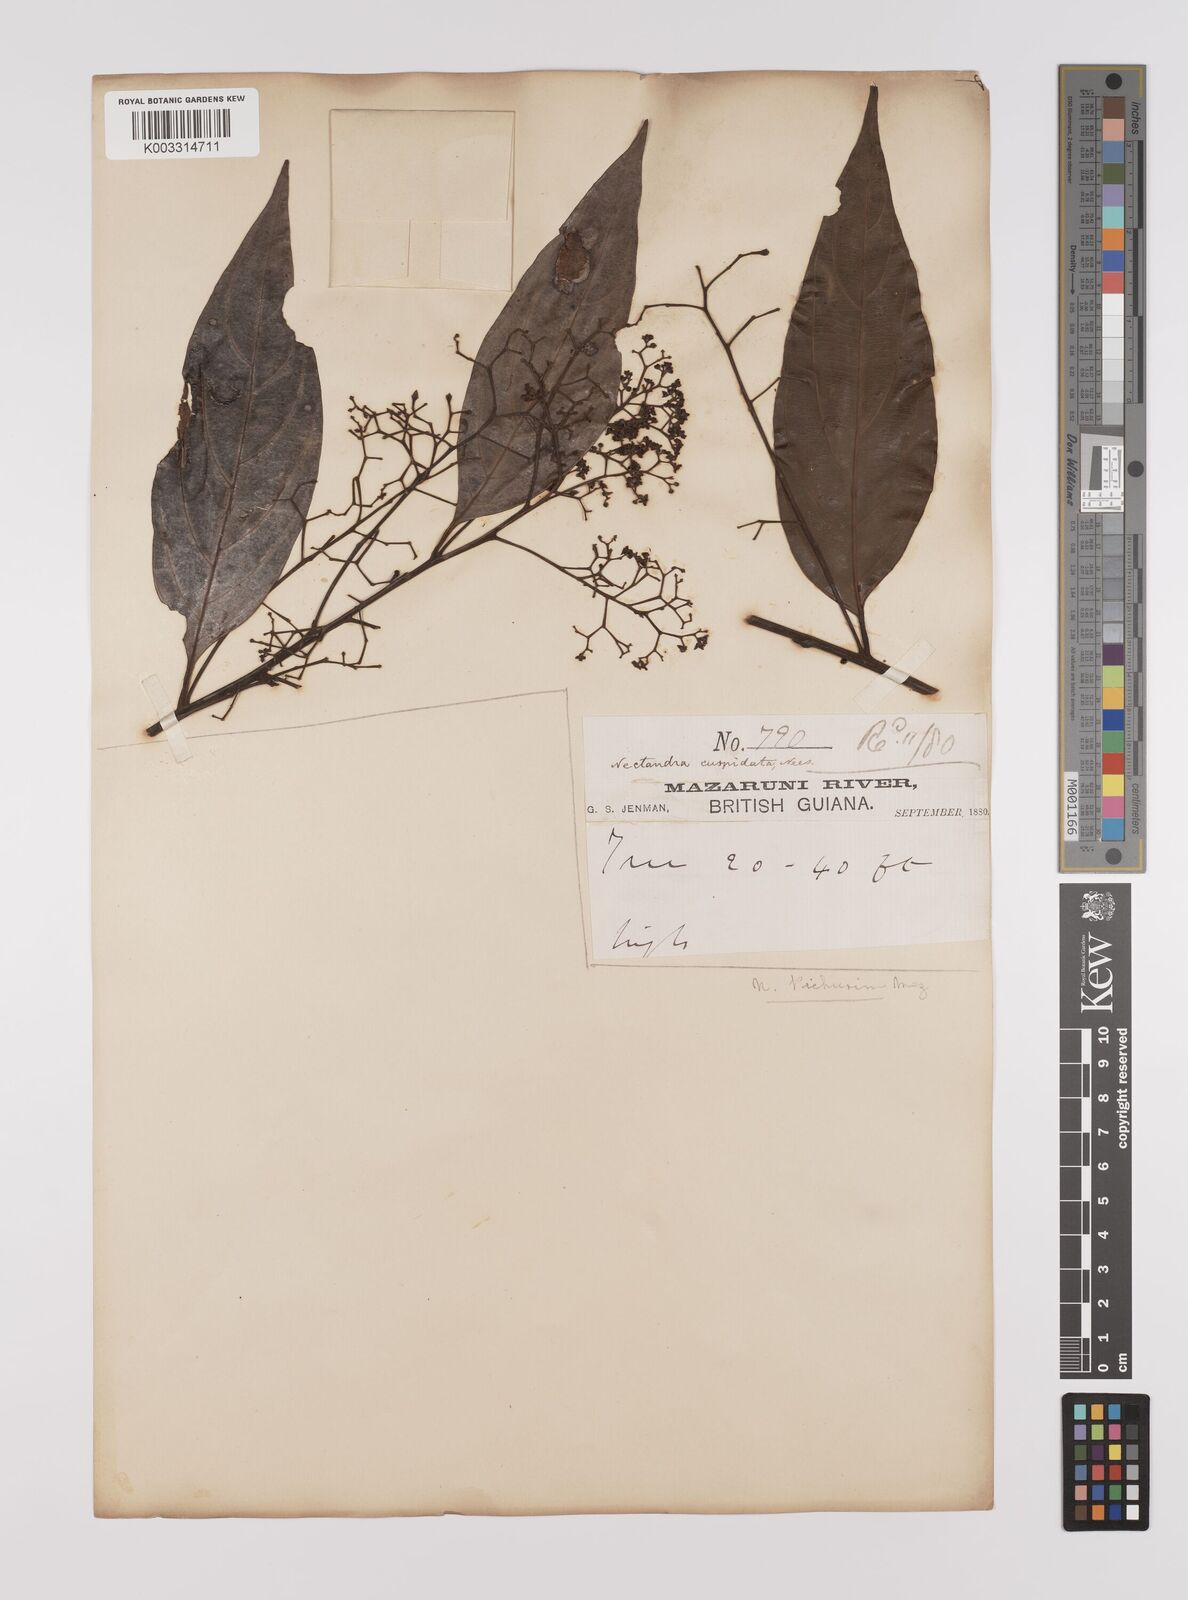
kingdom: Plantae
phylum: Tracheophyta
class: Magnoliopsida
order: Laurales
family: Lauraceae
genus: Nectandra
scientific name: Nectandra cuspidata
